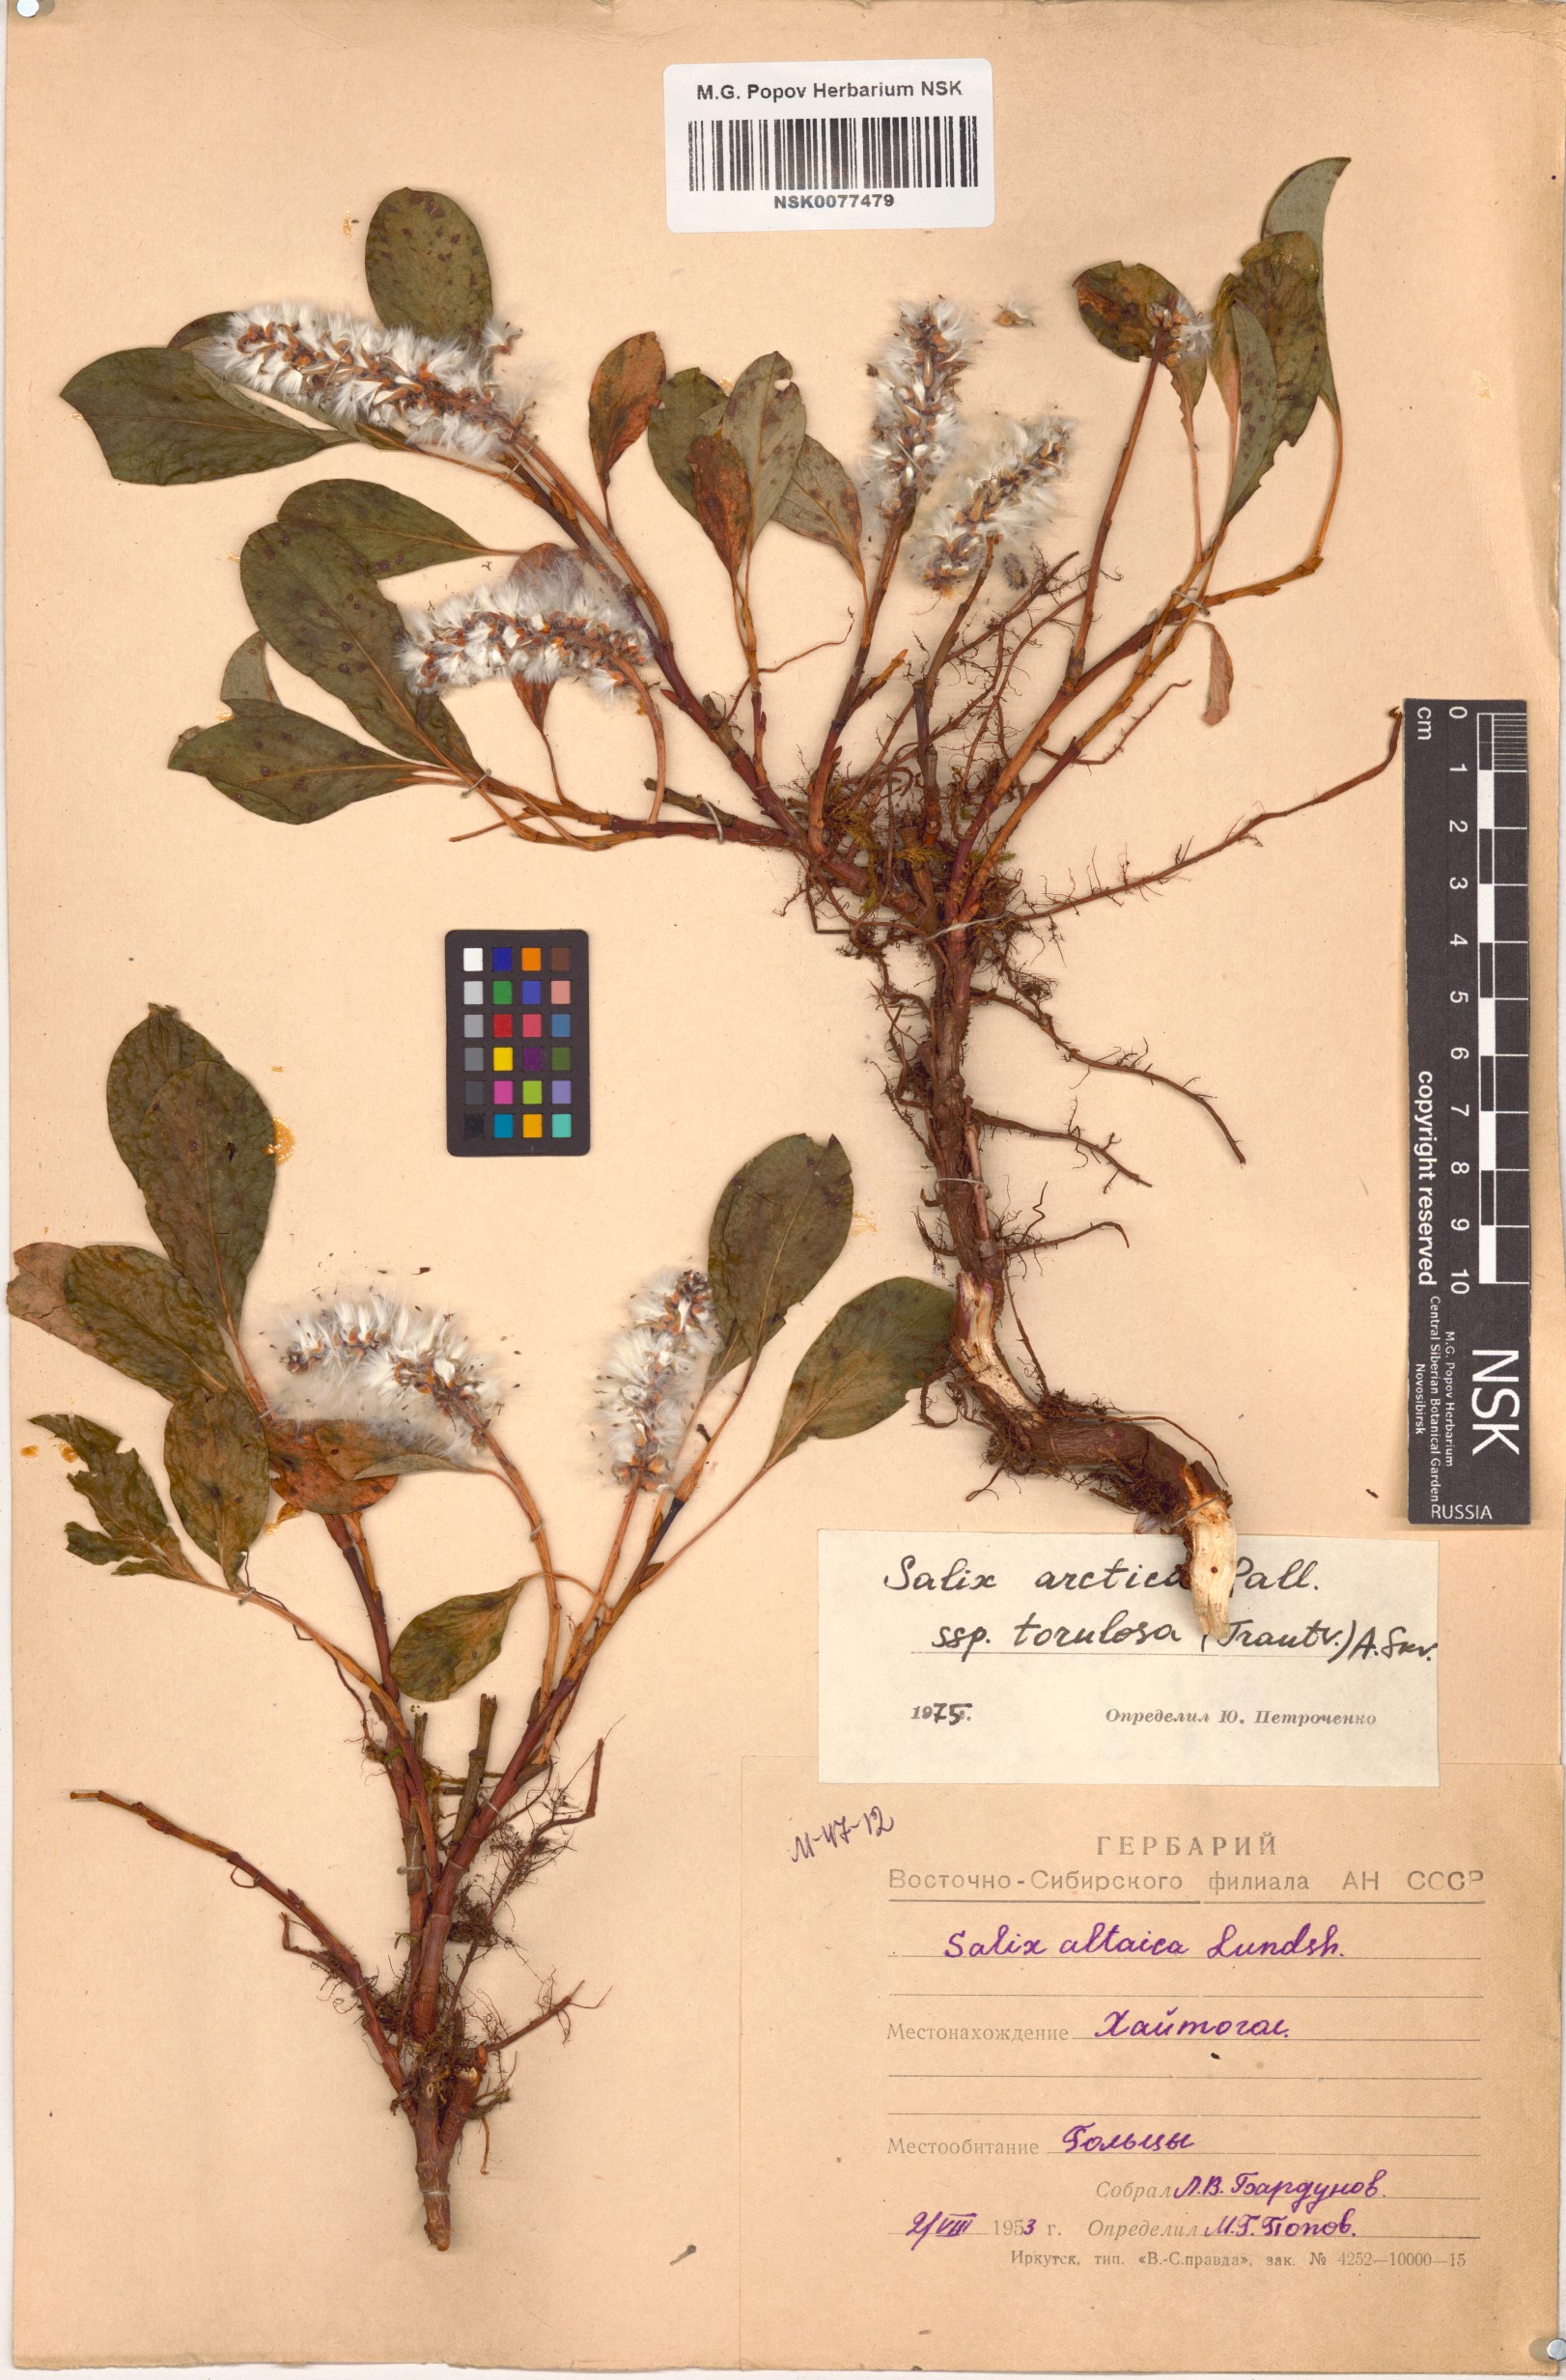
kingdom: Plantae
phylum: Tracheophyta
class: Magnoliopsida
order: Malpighiales
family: Salicaceae
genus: Salix
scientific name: Salix arctica
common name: Arctic willow
